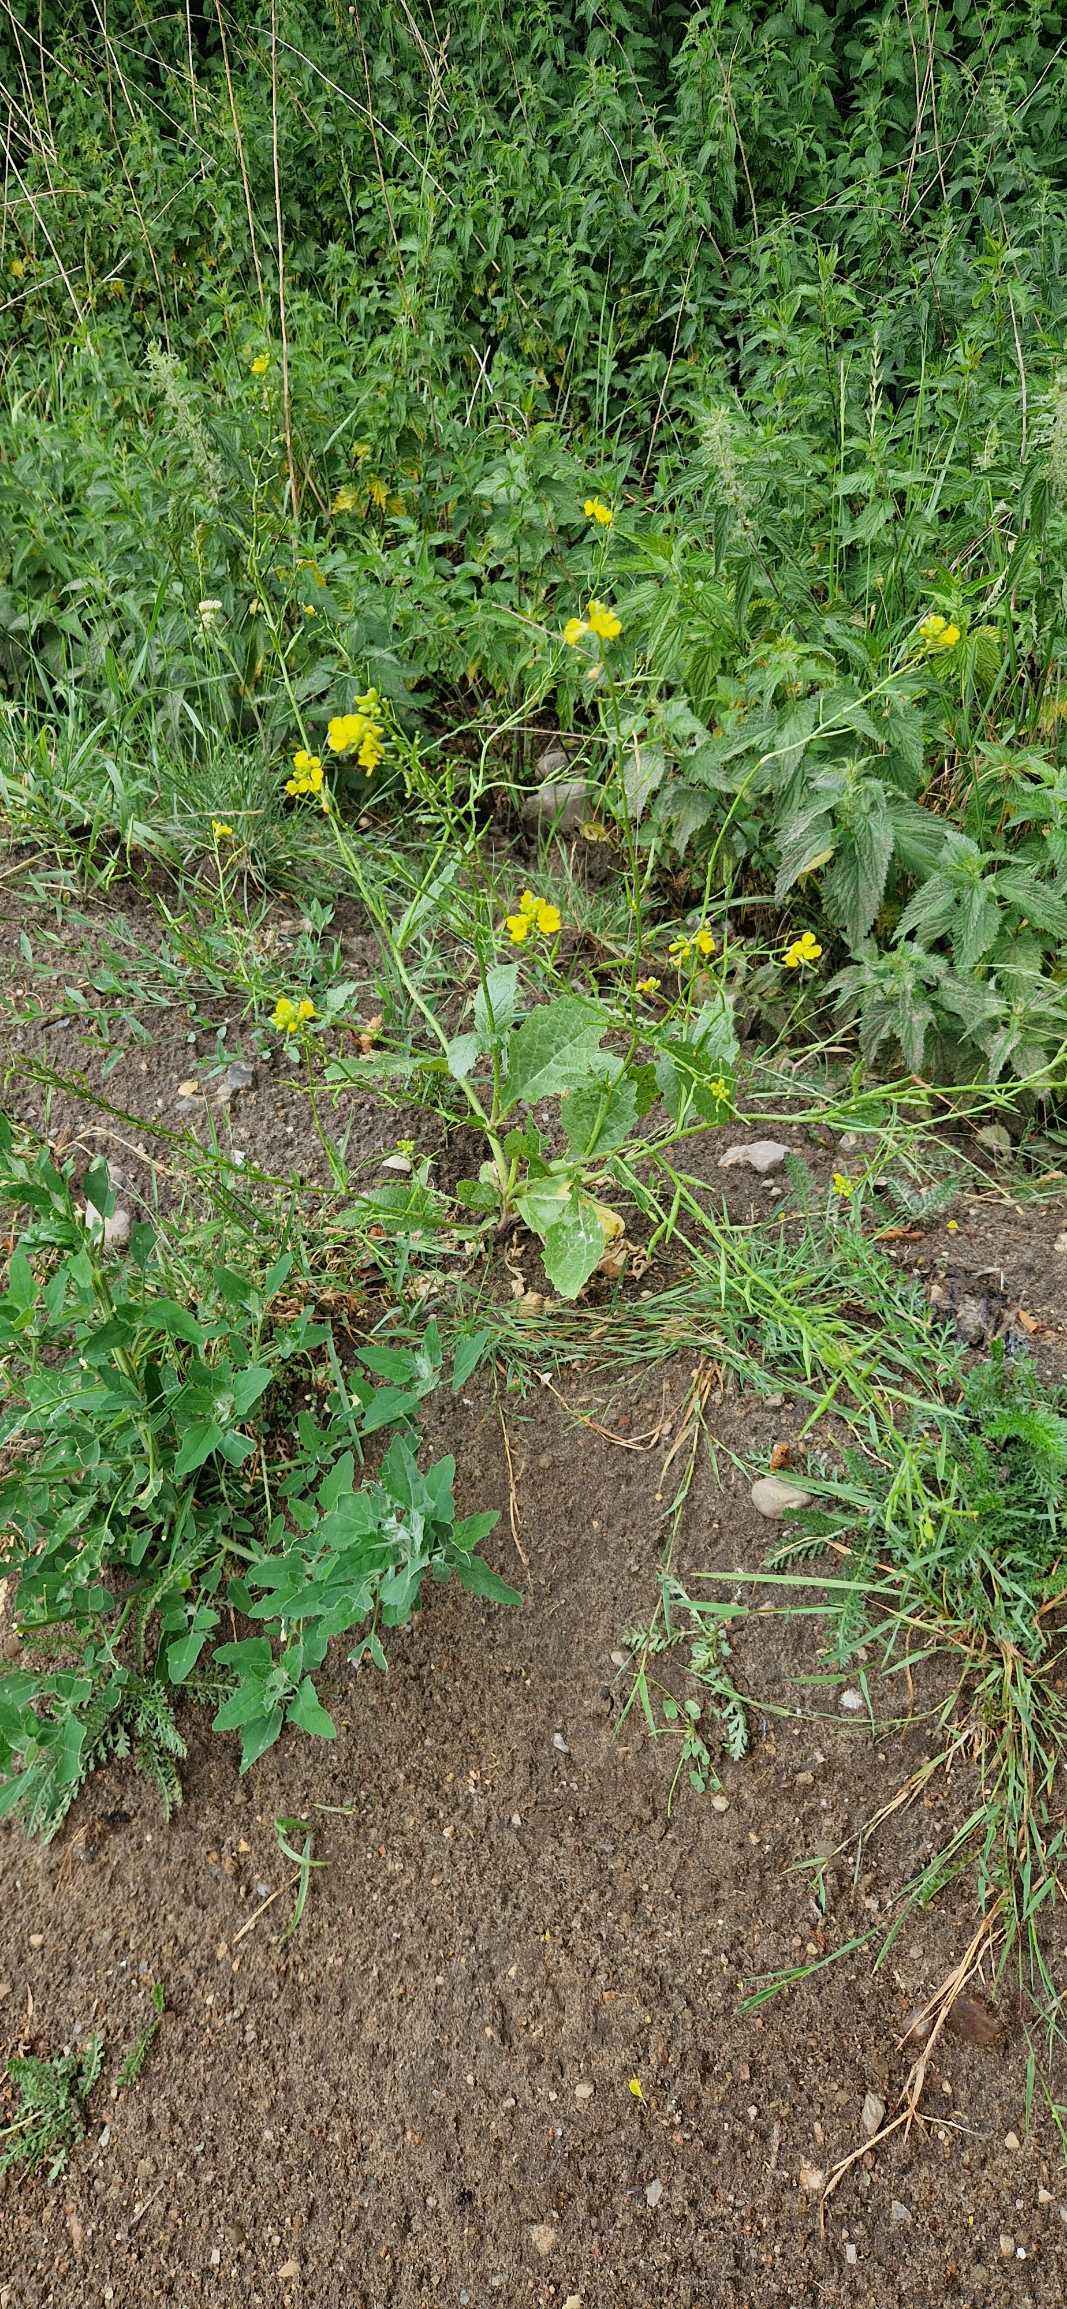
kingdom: Plantae
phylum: Tracheophyta
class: Magnoliopsida
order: Brassicales
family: Brassicaceae
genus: Sinapis
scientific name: Sinapis arvensis
